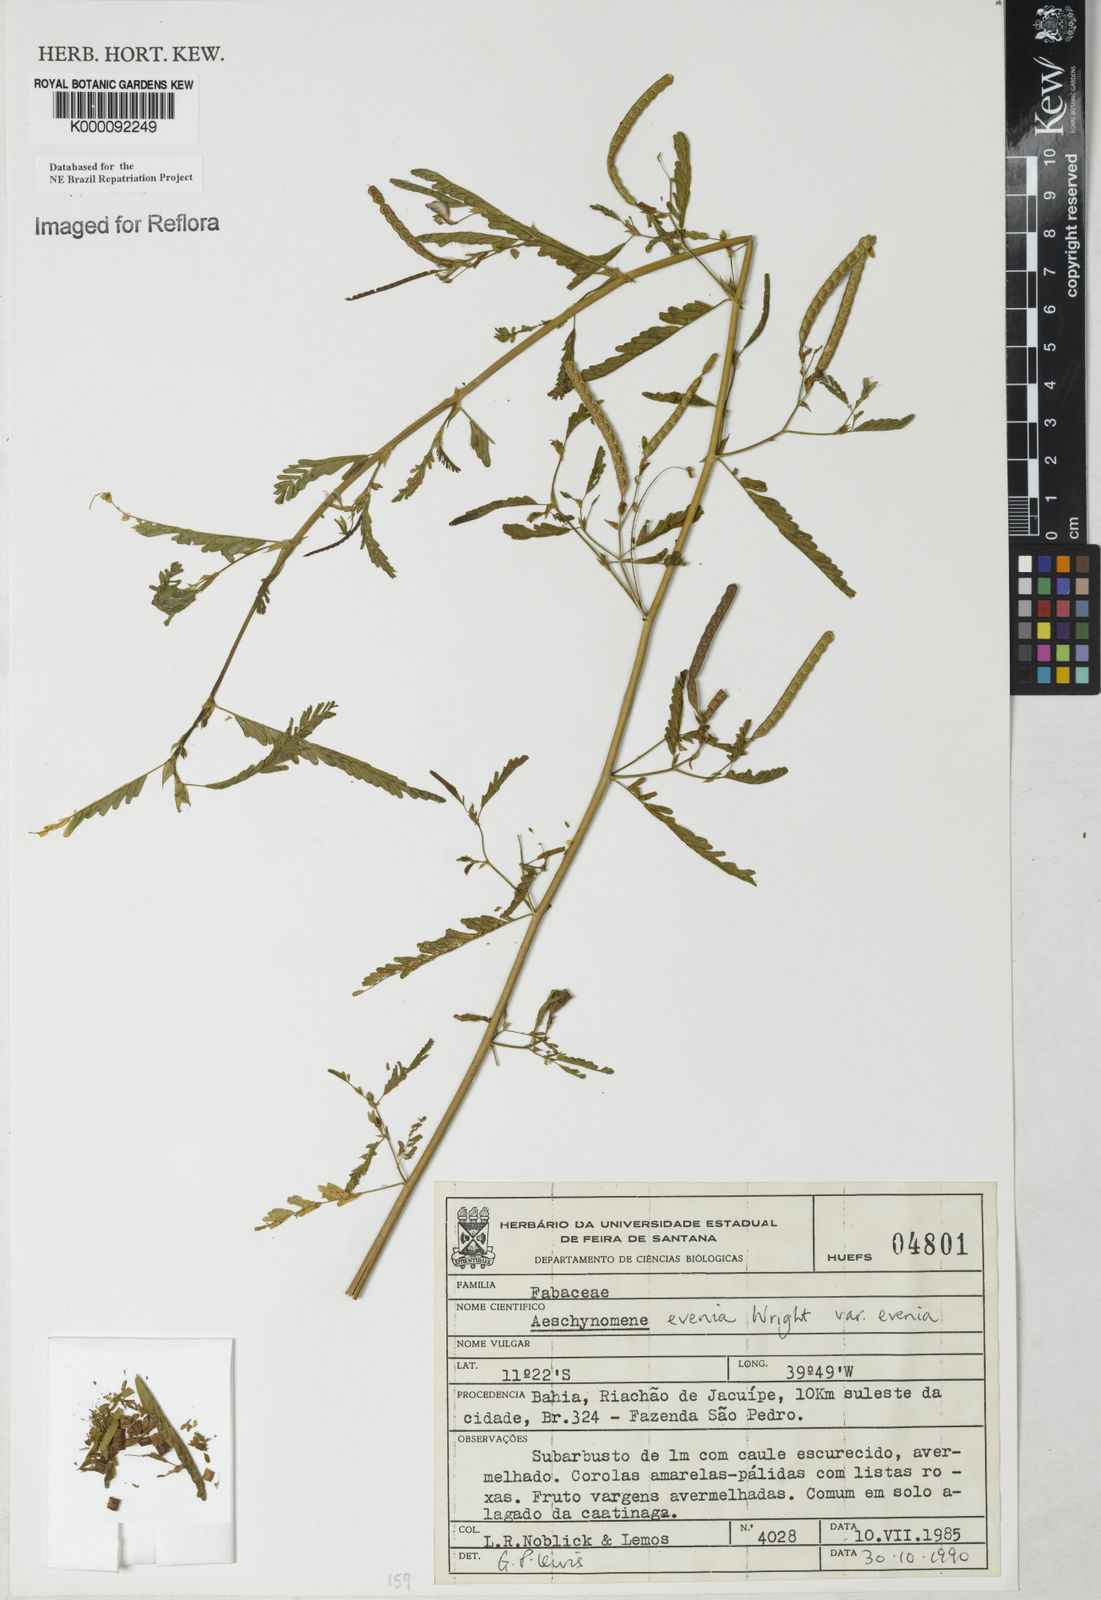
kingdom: Plantae
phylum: Tracheophyta
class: Magnoliopsida
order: Fabales
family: Fabaceae
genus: Aeschynomene
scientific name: Aeschynomene evenia
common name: Shrubby jointvetch
